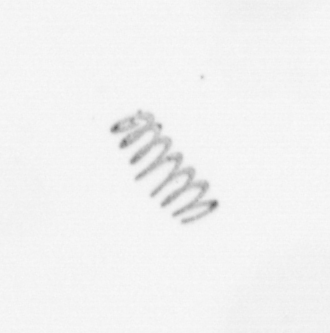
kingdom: Chromista
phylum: Ochrophyta
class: Bacillariophyceae
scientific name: Bacillariophyceae
